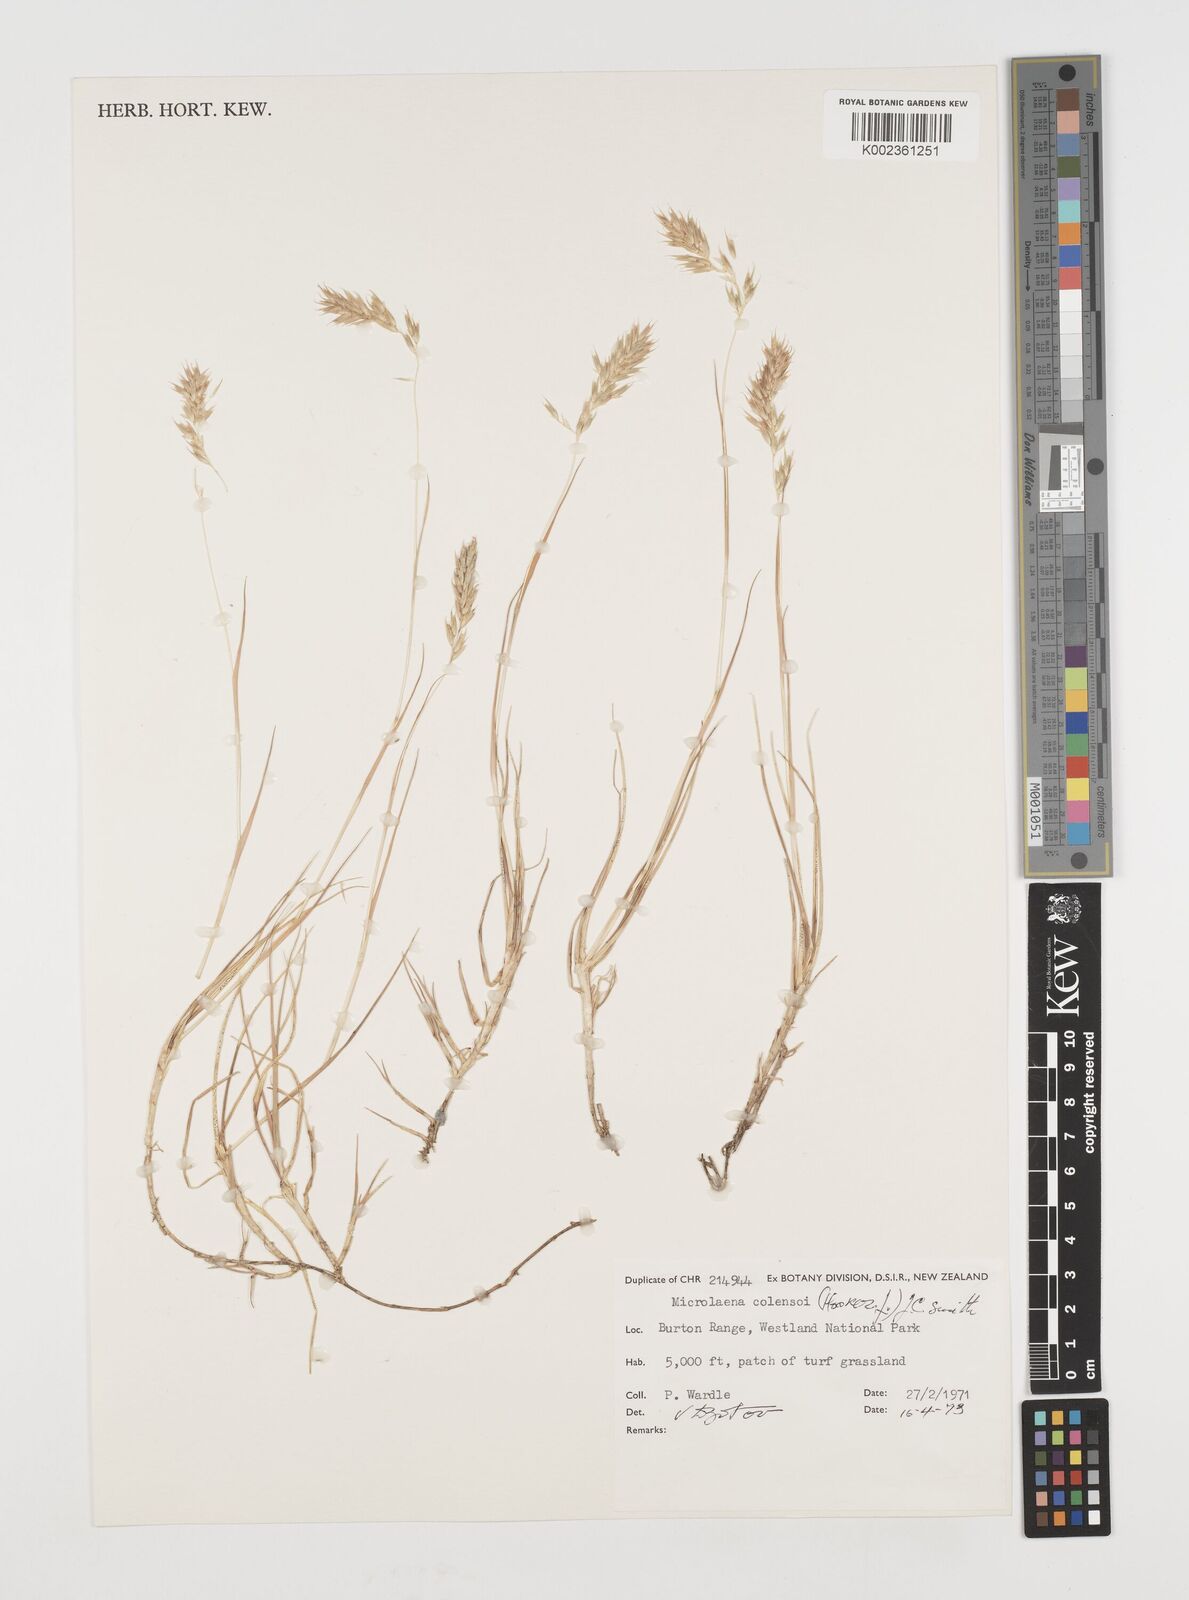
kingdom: Plantae
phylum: Tracheophyta
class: Liliopsida
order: Poales
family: Poaceae
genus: Zotovia
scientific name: Zotovia colensoi
